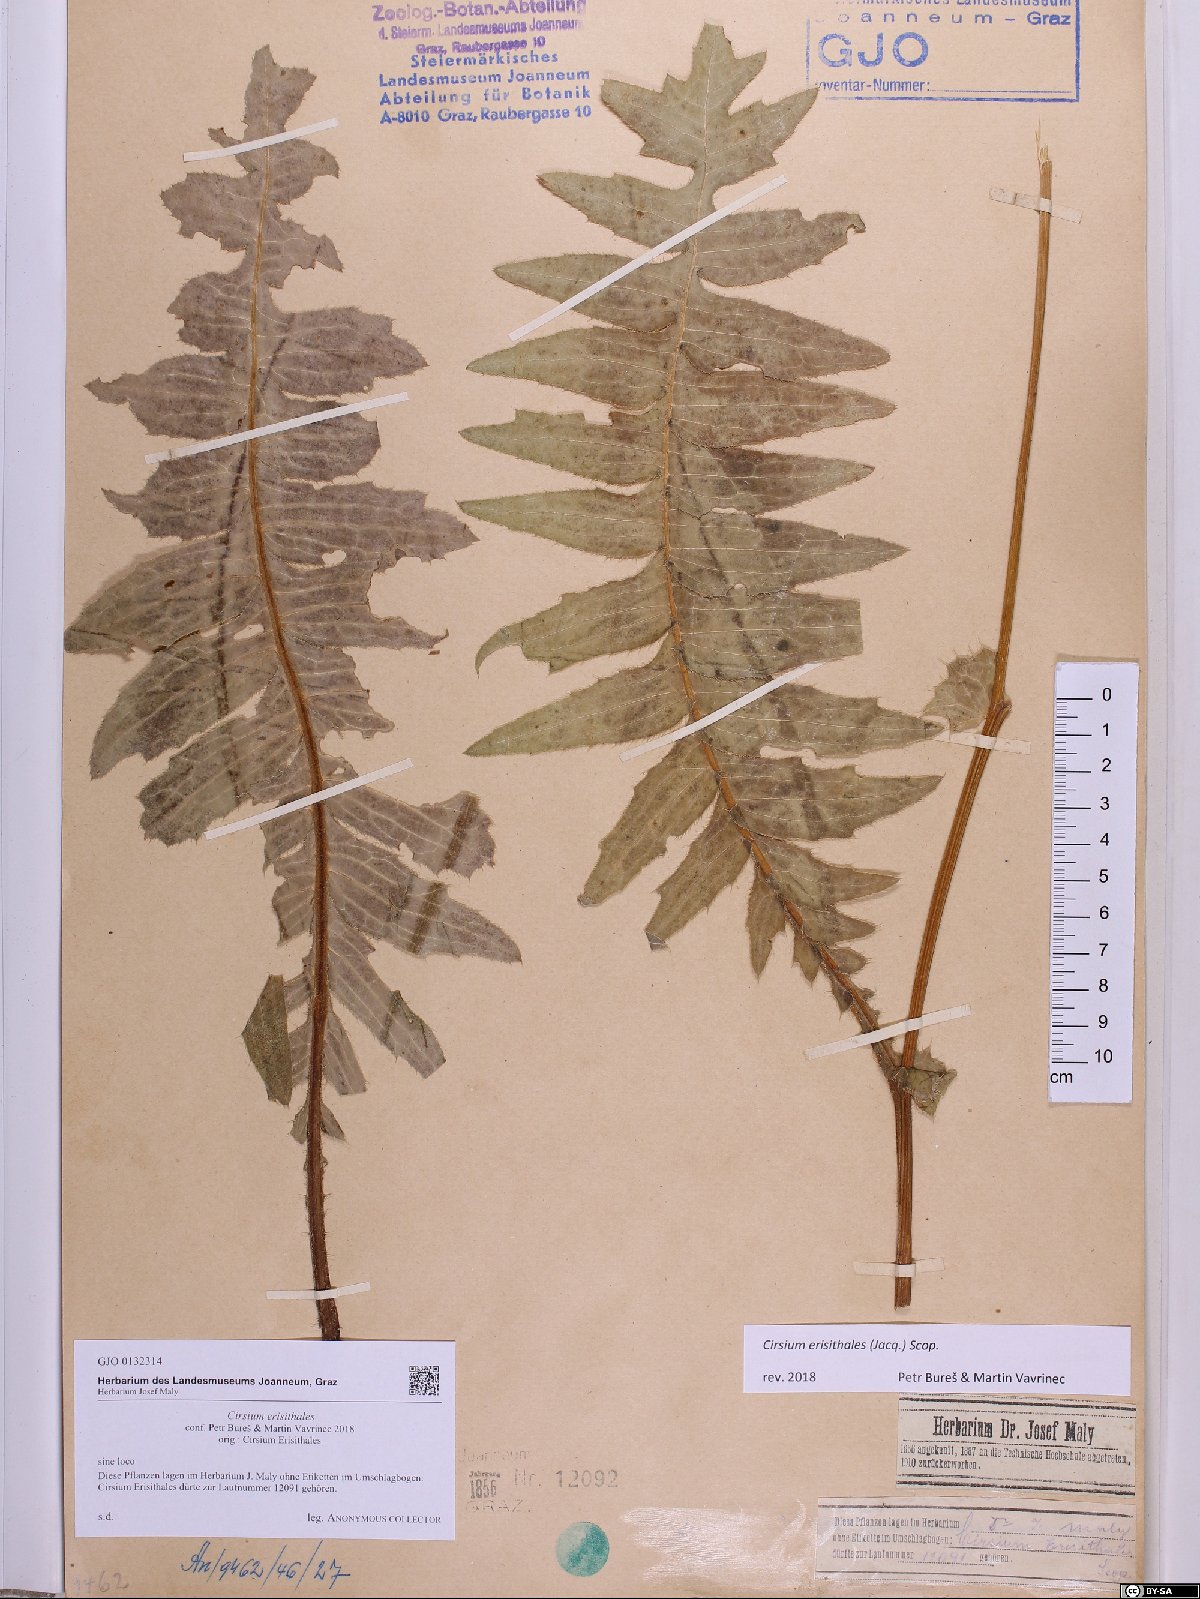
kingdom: Plantae
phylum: Tracheophyta
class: Magnoliopsida
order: Asterales
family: Asteraceae
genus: Cirsium
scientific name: Cirsium erisithales
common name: Yellow thistle
